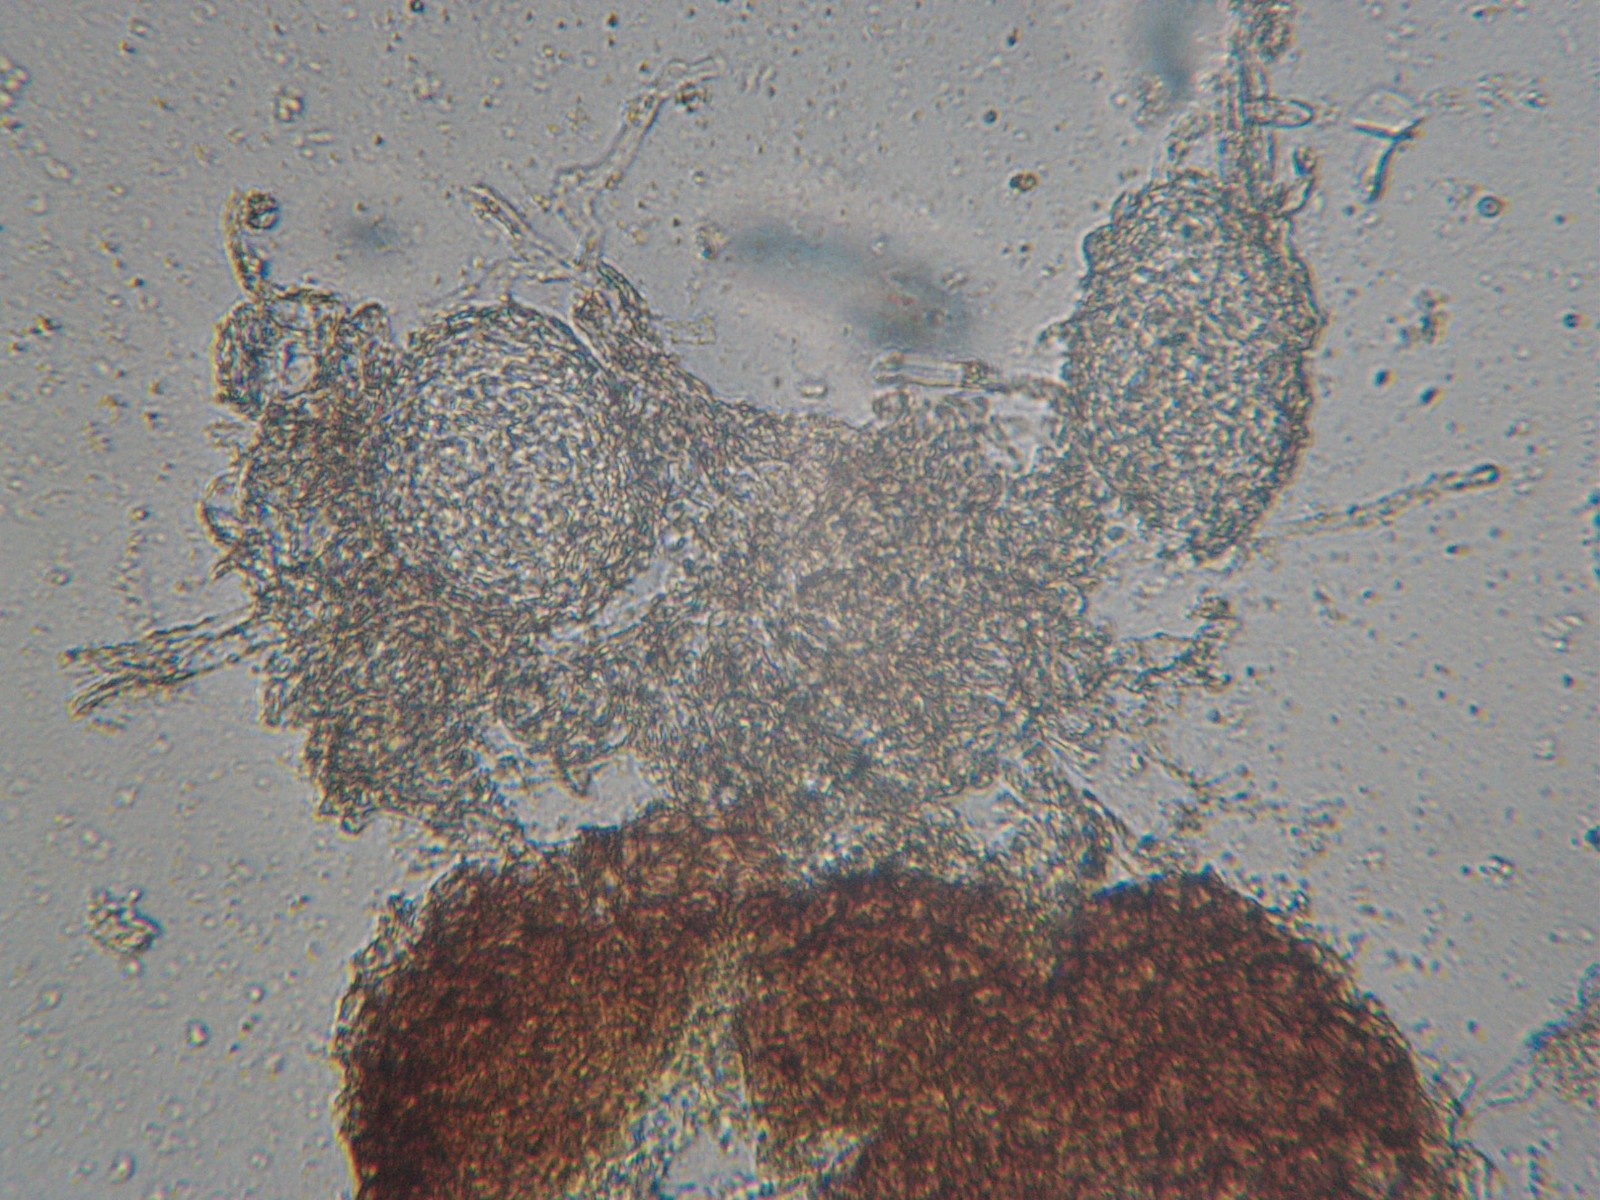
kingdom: Fungi
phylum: Ascomycota
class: Leotiomycetes
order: Helotiales
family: Erysiphaceae
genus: Erysiphe
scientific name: Erysiphe adunca
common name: pile-meldug
